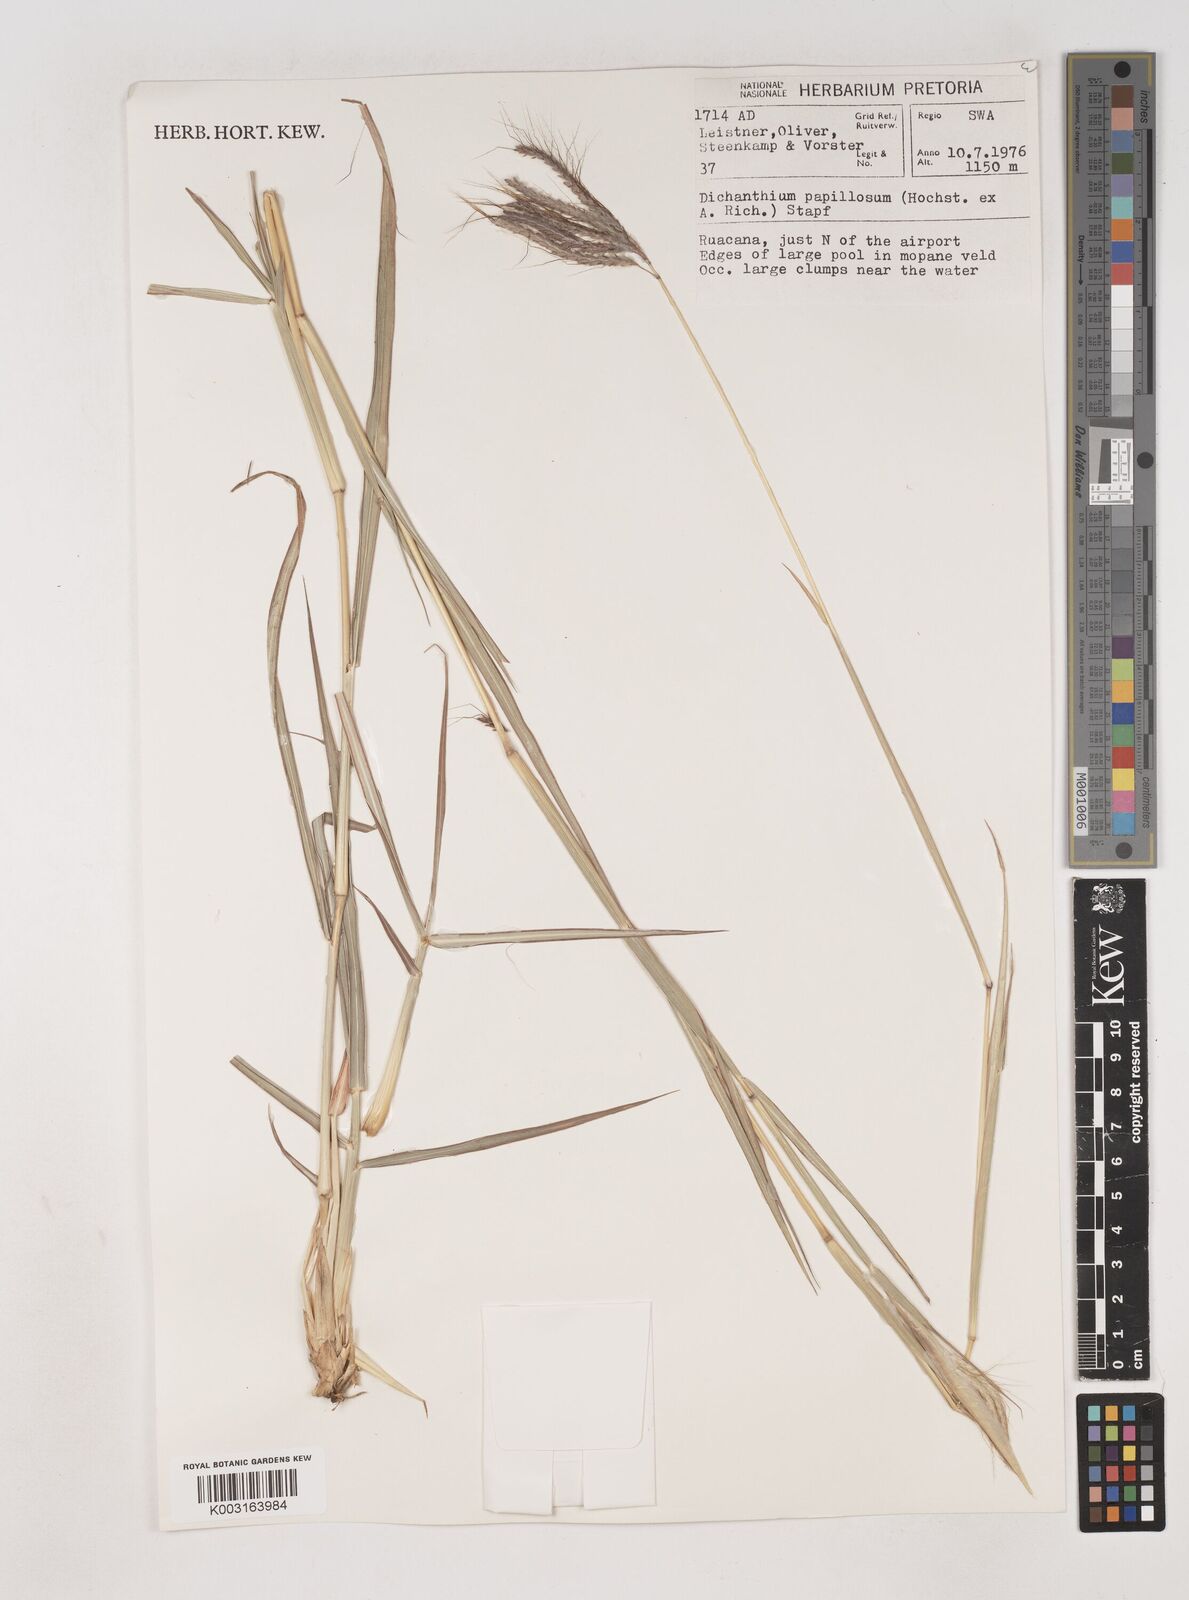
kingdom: Plantae
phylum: Tracheophyta
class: Liliopsida
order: Poales
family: Poaceae
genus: Dichanthium
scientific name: Dichanthium annulatum
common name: Kleberg's bluestem
